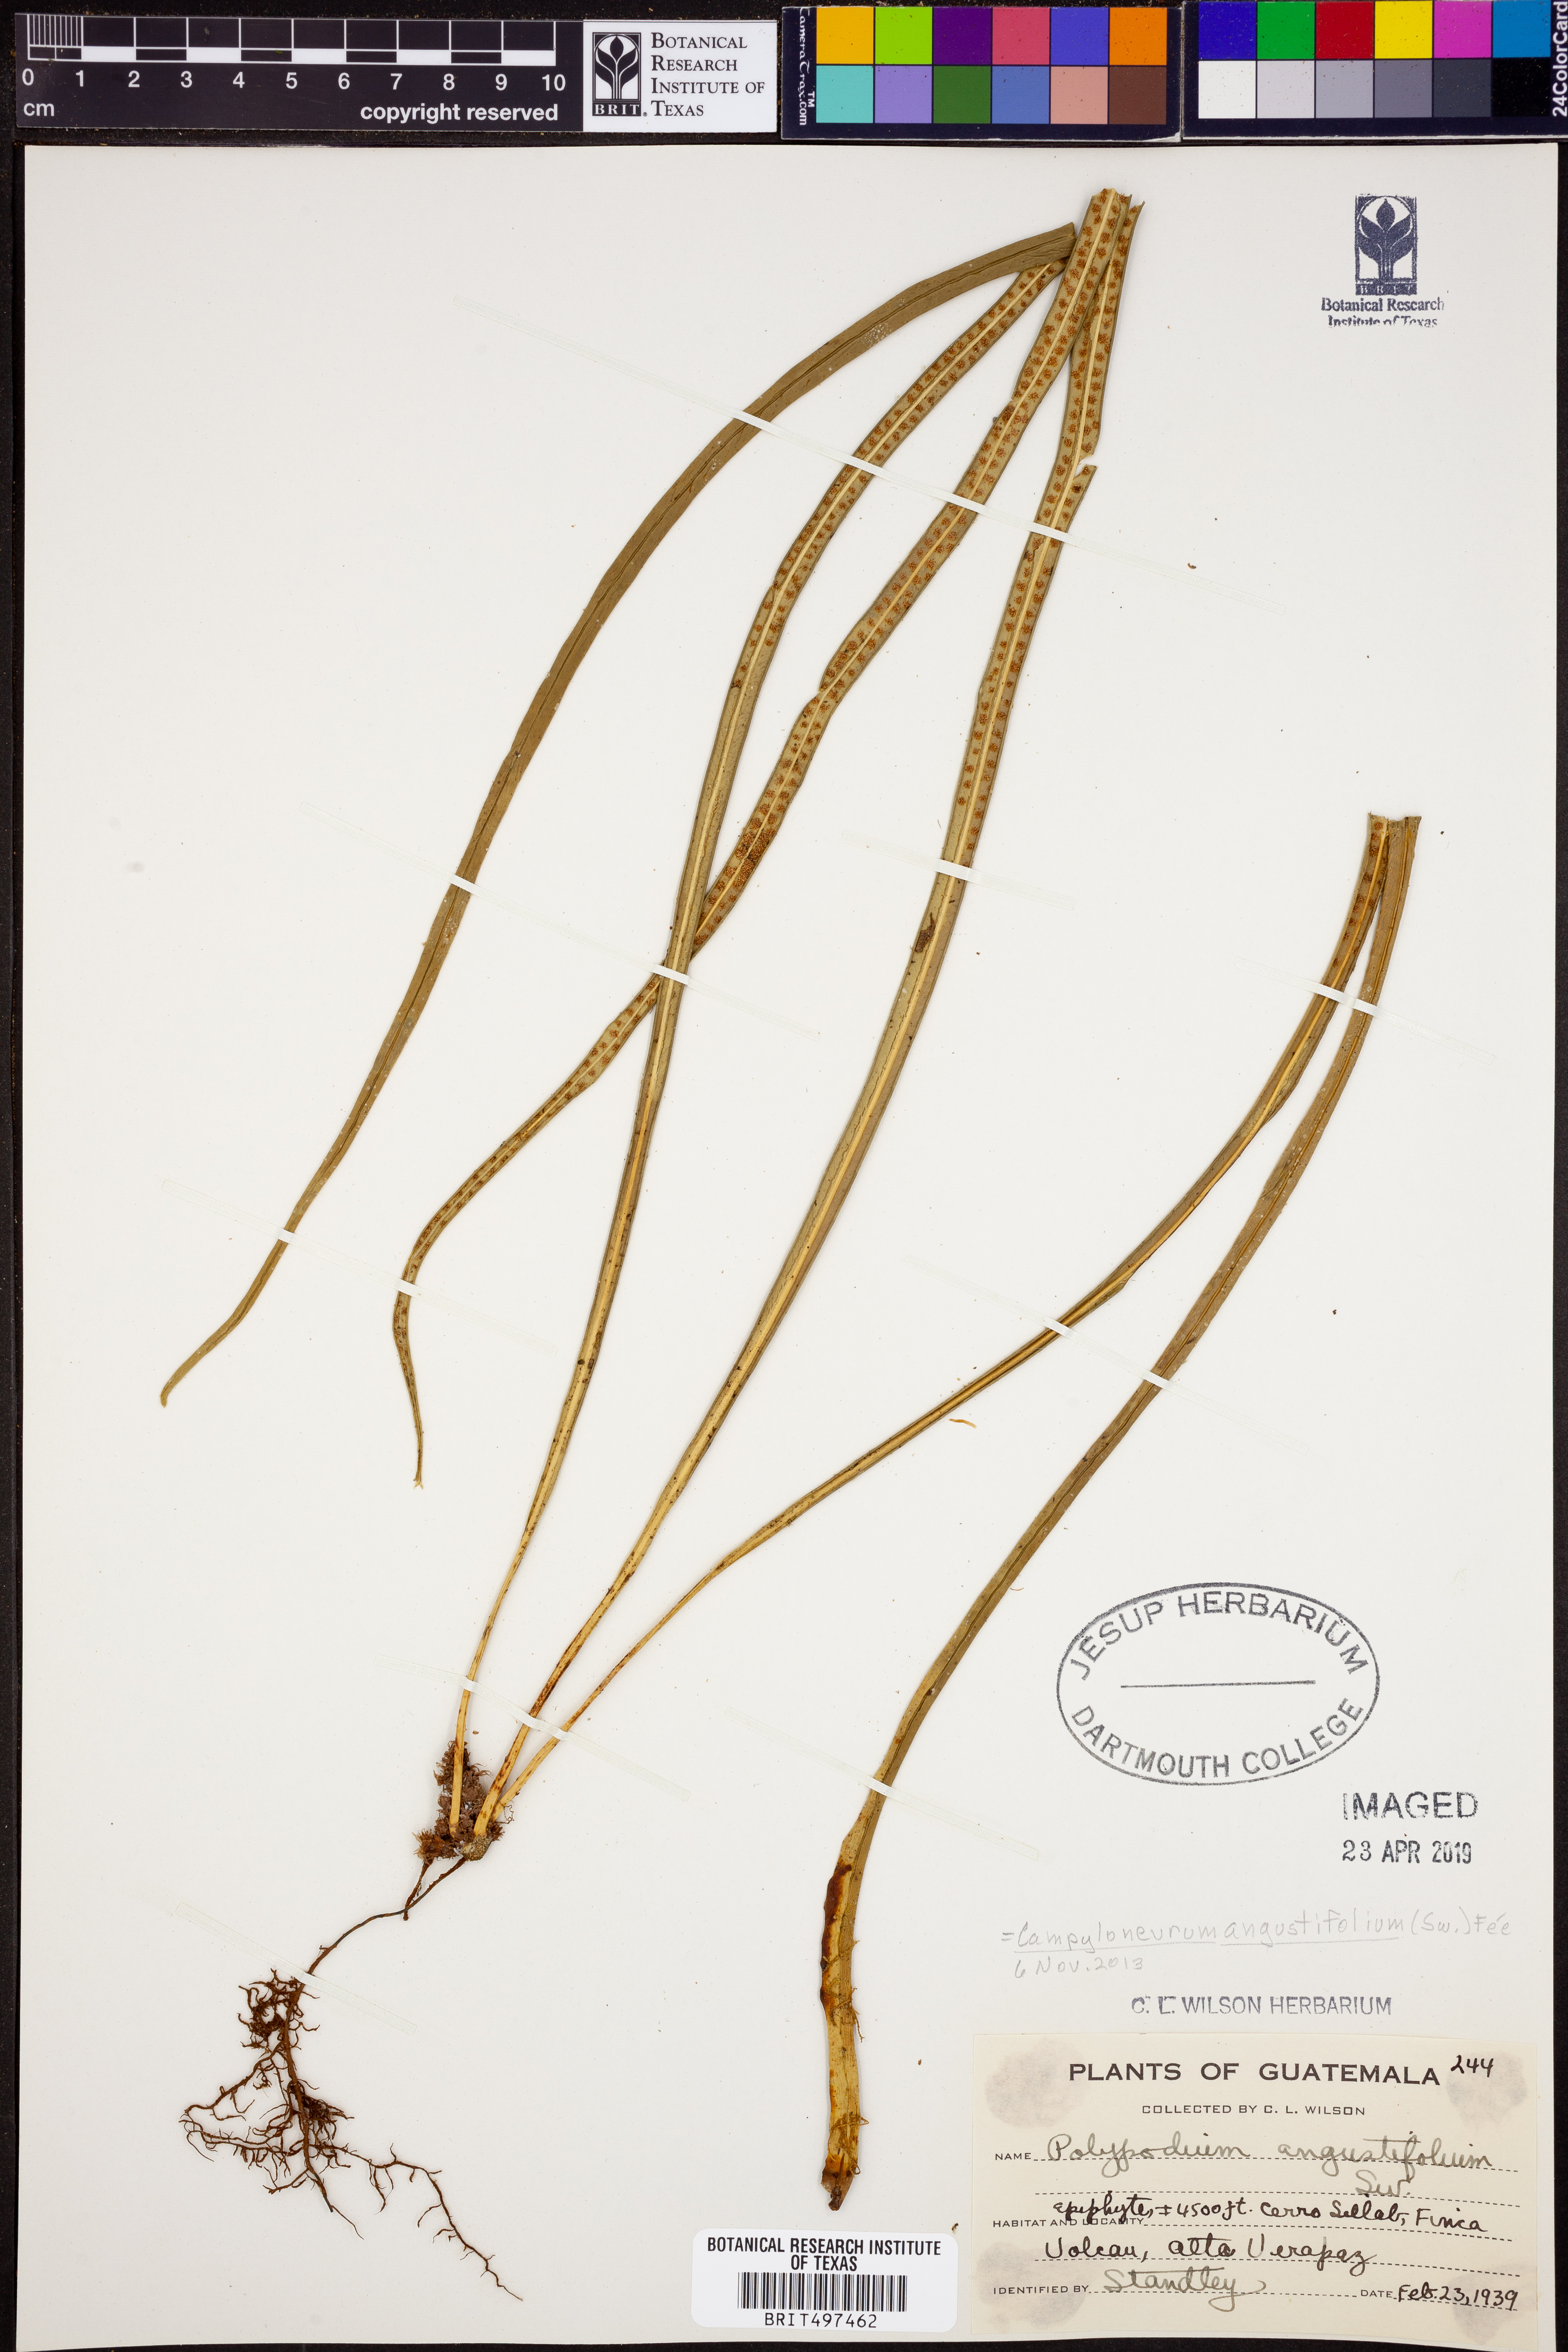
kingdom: Plantae
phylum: Tracheophyta
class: Polypodiopsida
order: Polypodiales
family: Polypodiaceae
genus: Campyloneurum
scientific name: Campyloneurum angustifolium
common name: Narrow-leaf strap fern
